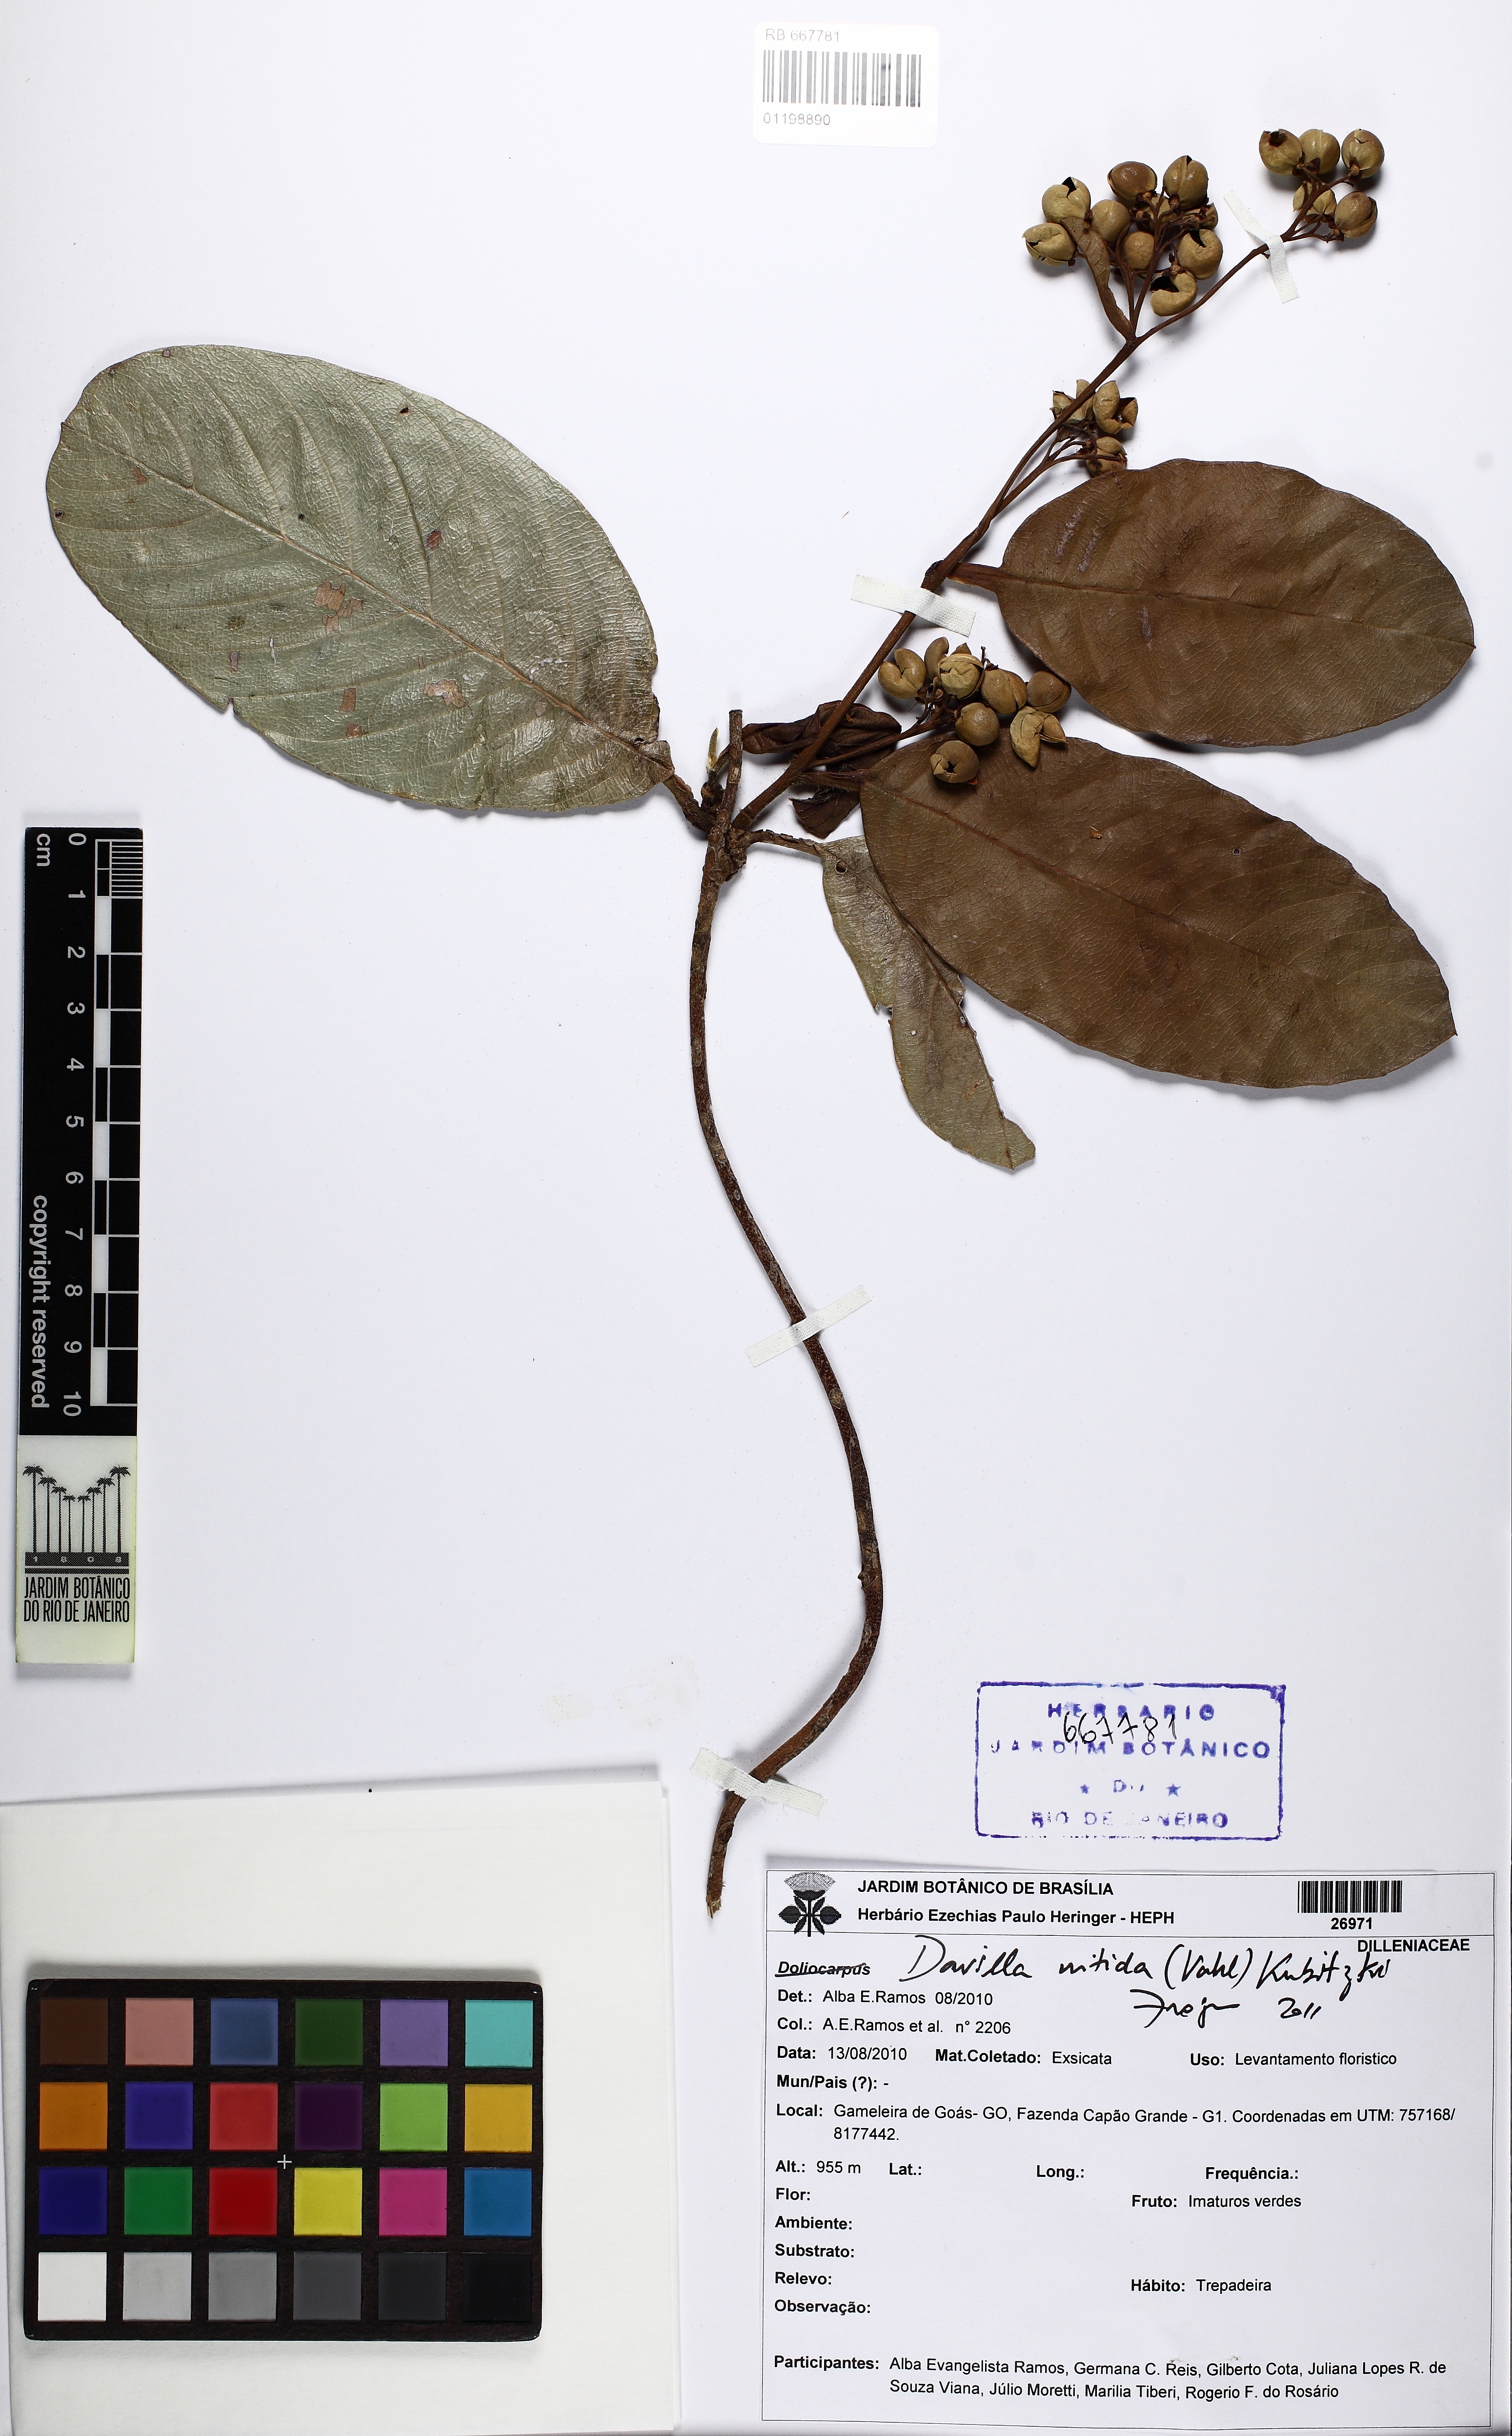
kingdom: Plantae
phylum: Tracheophyta
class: Magnoliopsida
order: Dilleniales
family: Dilleniaceae
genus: Davilla
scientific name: Davilla nitida
